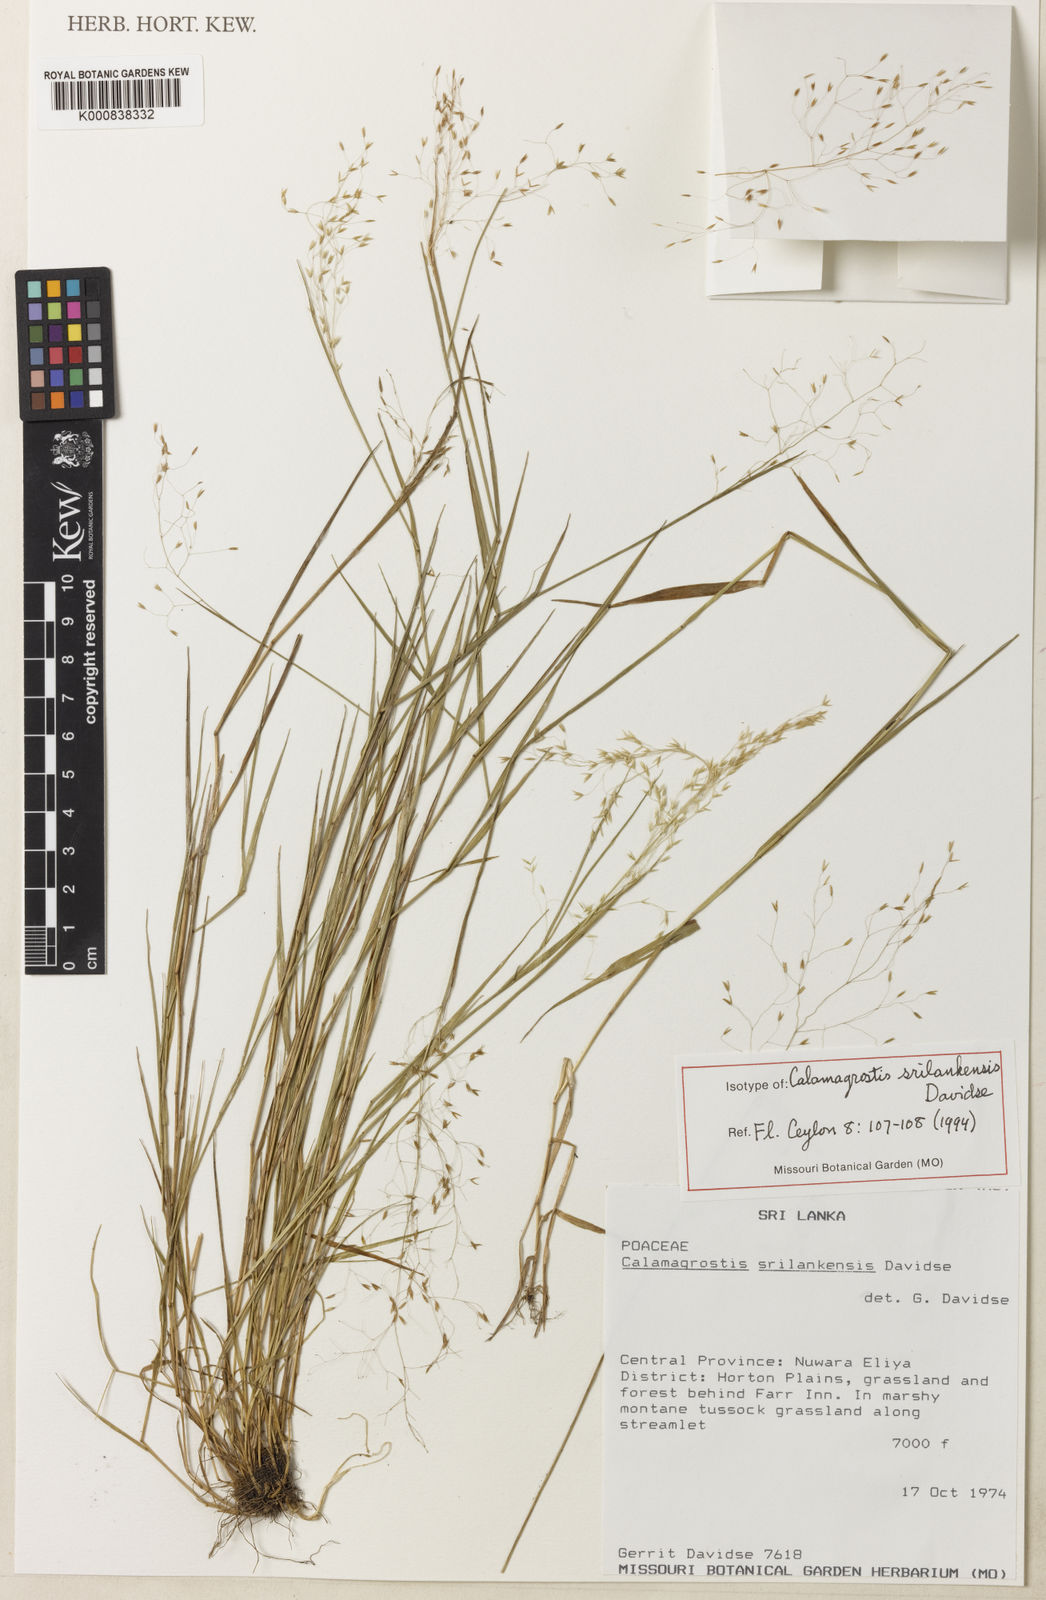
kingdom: Plantae
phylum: Tracheophyta
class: Liliopsida
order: Poales
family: Poaceae
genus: Calamagrostis
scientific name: Calamagrostis srilankensis
